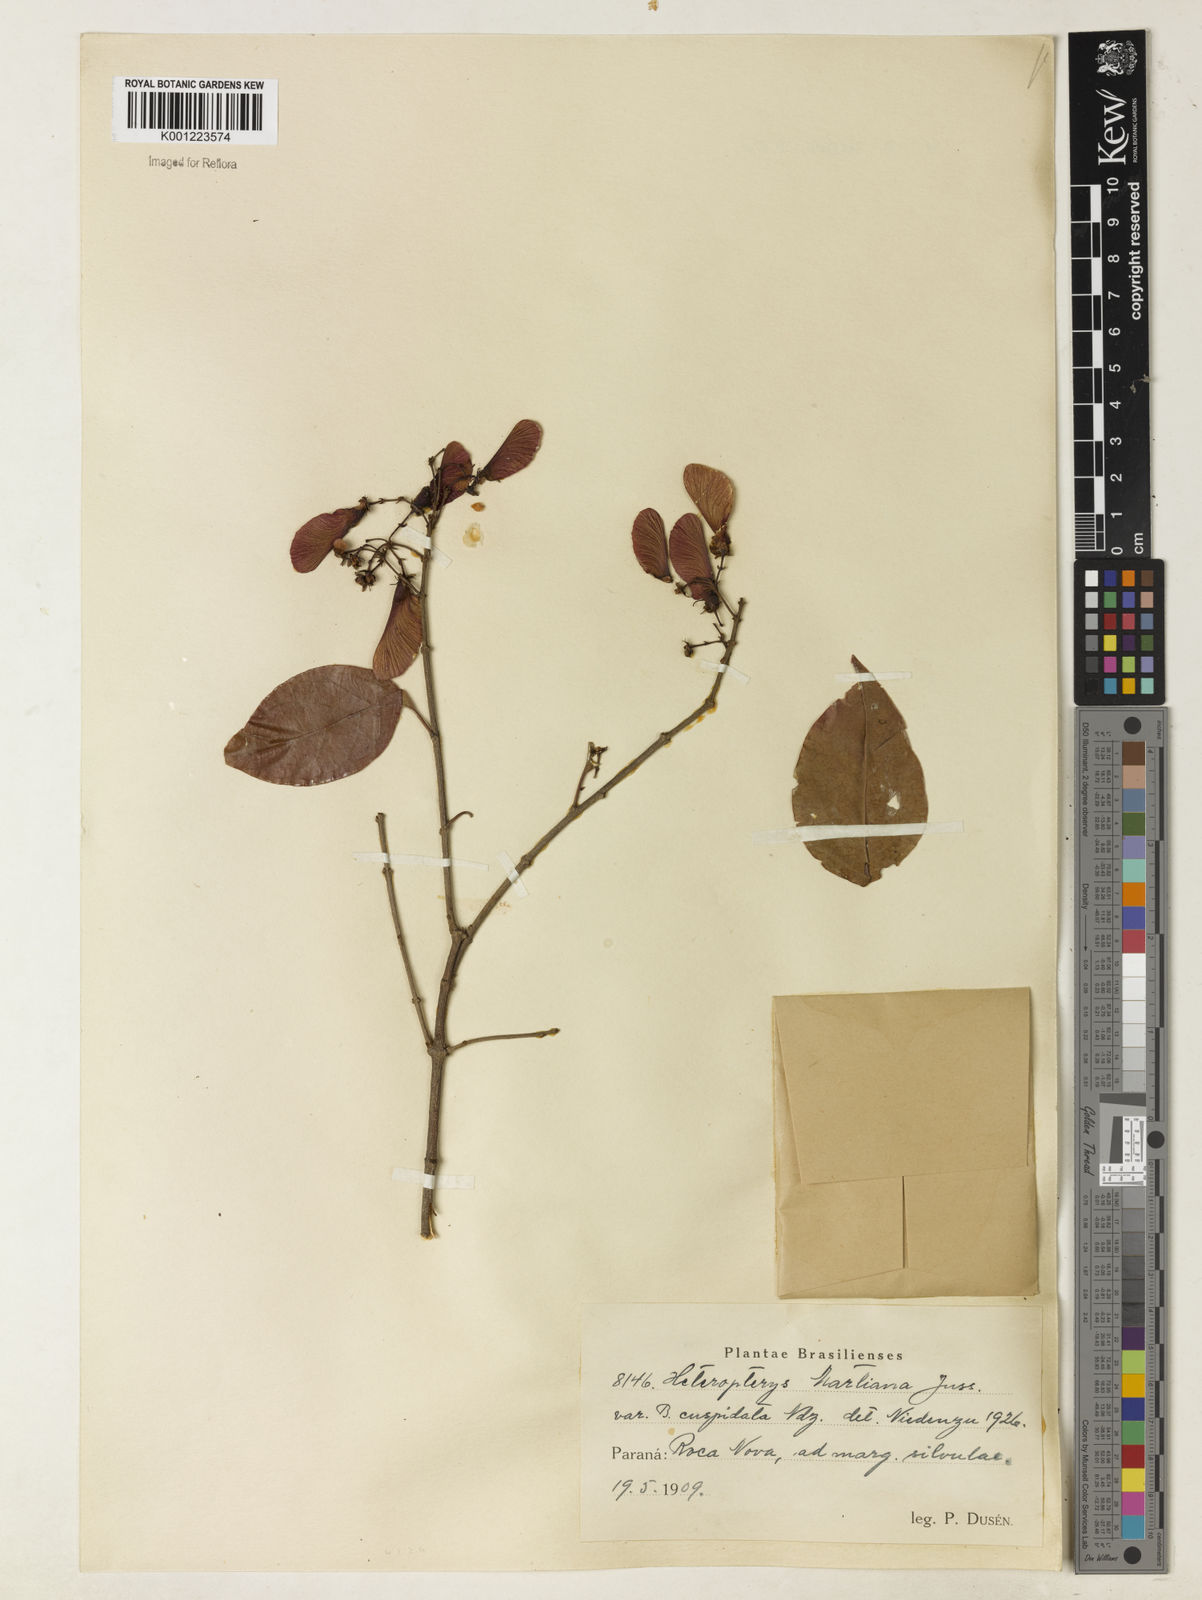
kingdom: Plantae
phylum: Tracheophyta
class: Magnoliopsida
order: Malpighiales
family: Malpighiaceae
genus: Heteropterys
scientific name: Heteropterys syringifolia
